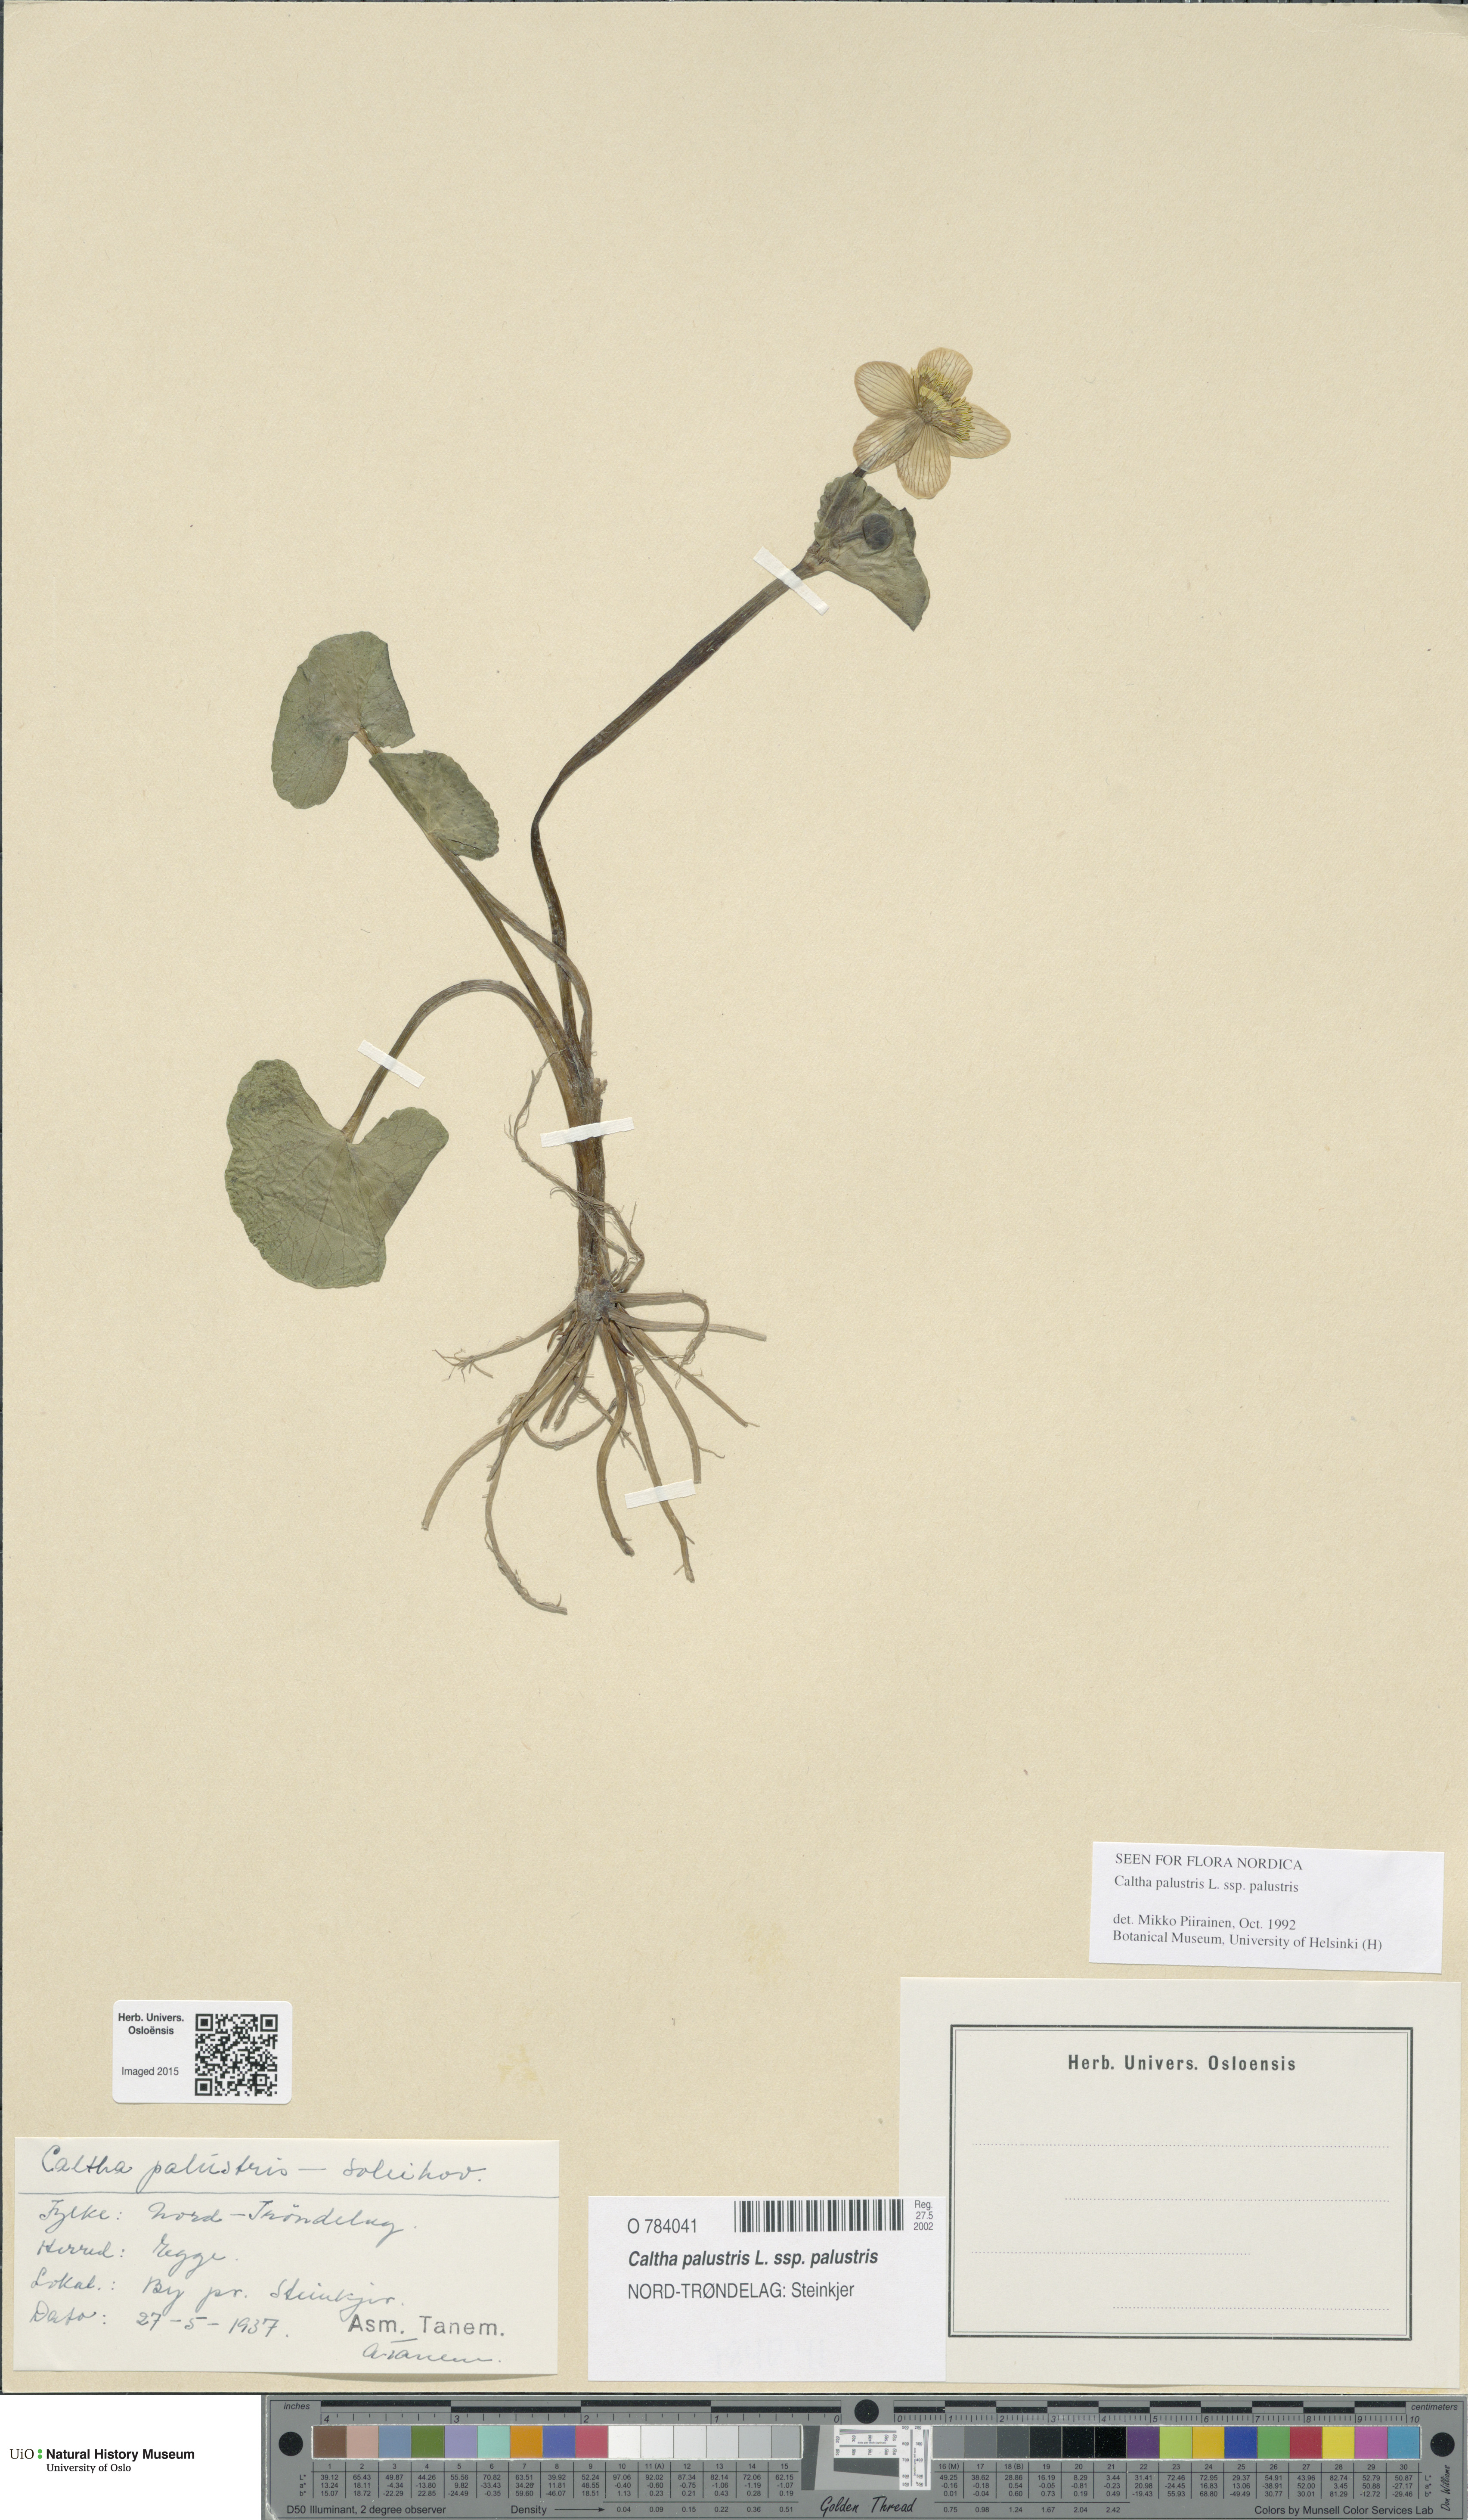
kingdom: Plantae
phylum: Tracheophyta
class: Magnoliopsida
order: Ranunculales
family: Ranunculaceae
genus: Caltha
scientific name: Caltha palustris
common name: Marsh marigold
